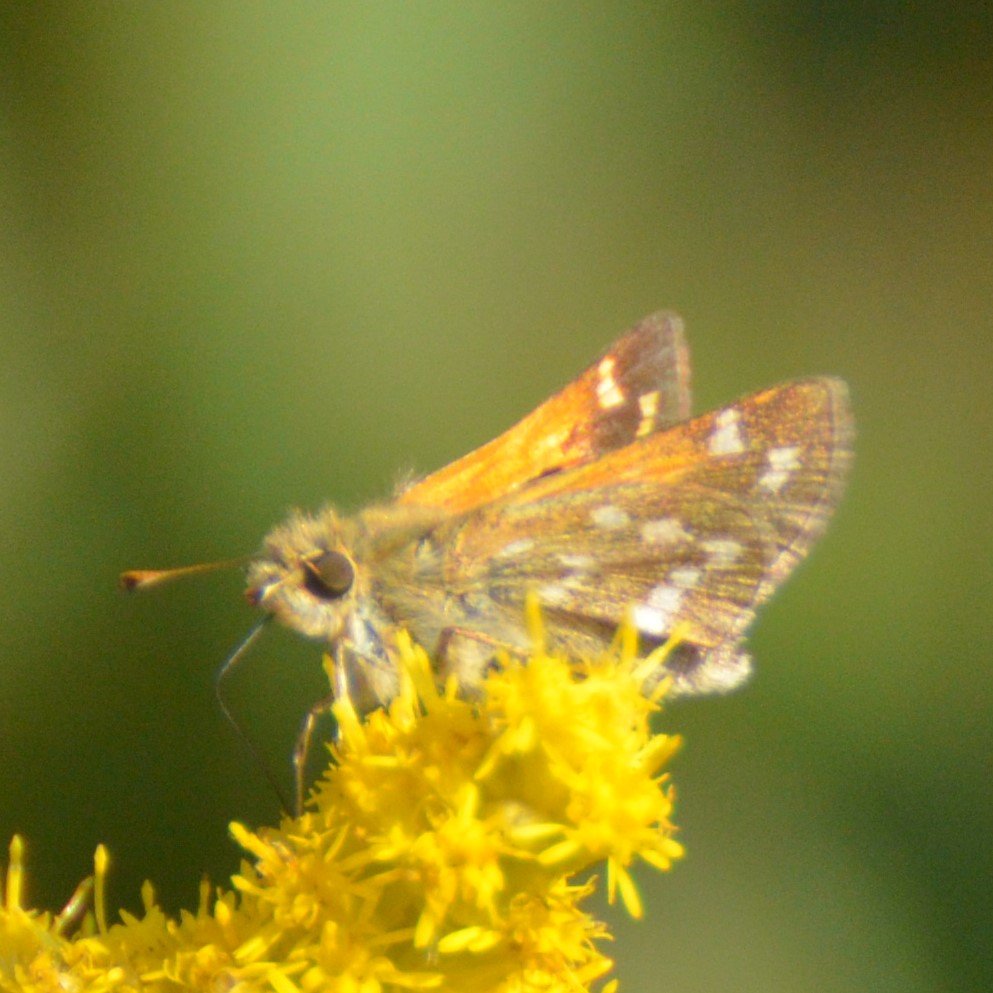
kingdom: Animalia
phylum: Arthropoda
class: Insecta
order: Lepidoptera
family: Hesperiidae
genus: Hesperia
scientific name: Hesperia comma
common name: Common Branded Skipper
